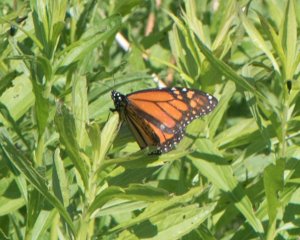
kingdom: Animalia
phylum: Arthropoda
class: Insecta
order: Lepidoptera
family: Nymphalidae
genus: Danaus
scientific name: Danaus plexippus
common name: Monarch
